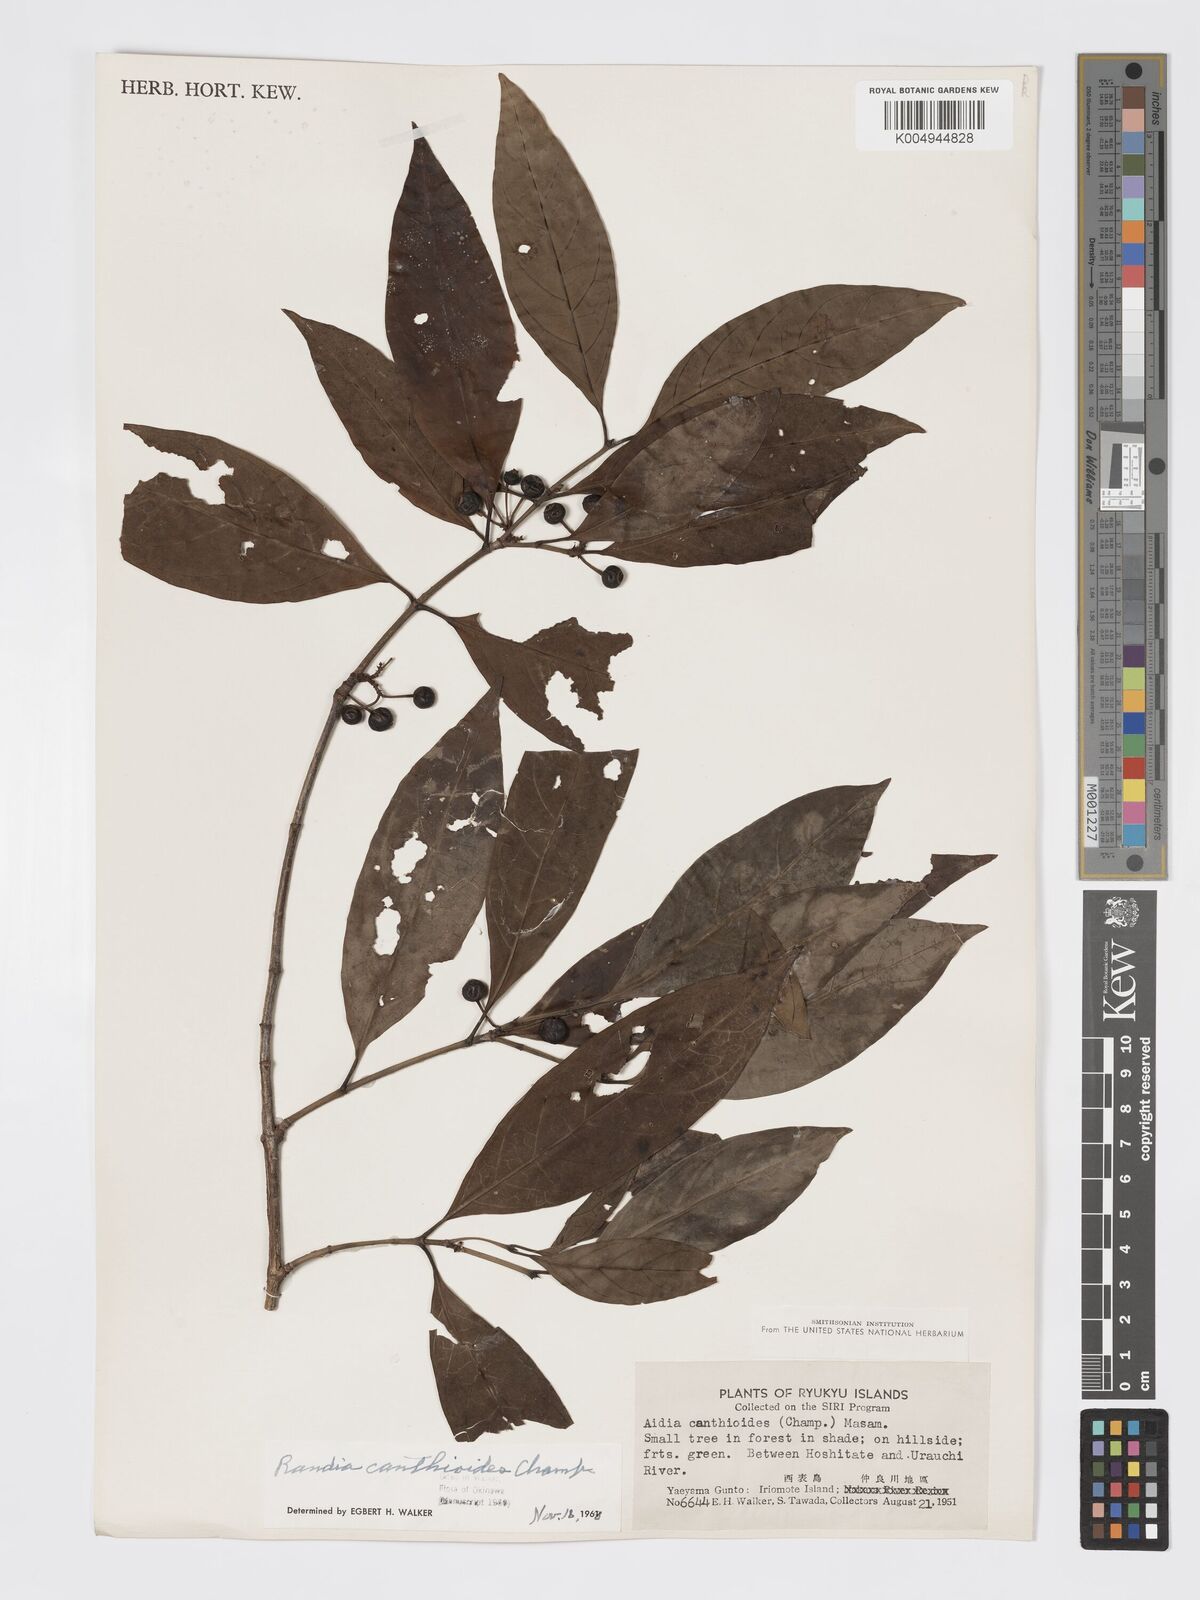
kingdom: Plantae
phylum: Tracheophyta
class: Magnoliopsida
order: Gentianales
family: Rubiaceae
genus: Aidia
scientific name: Aidia canthioides
